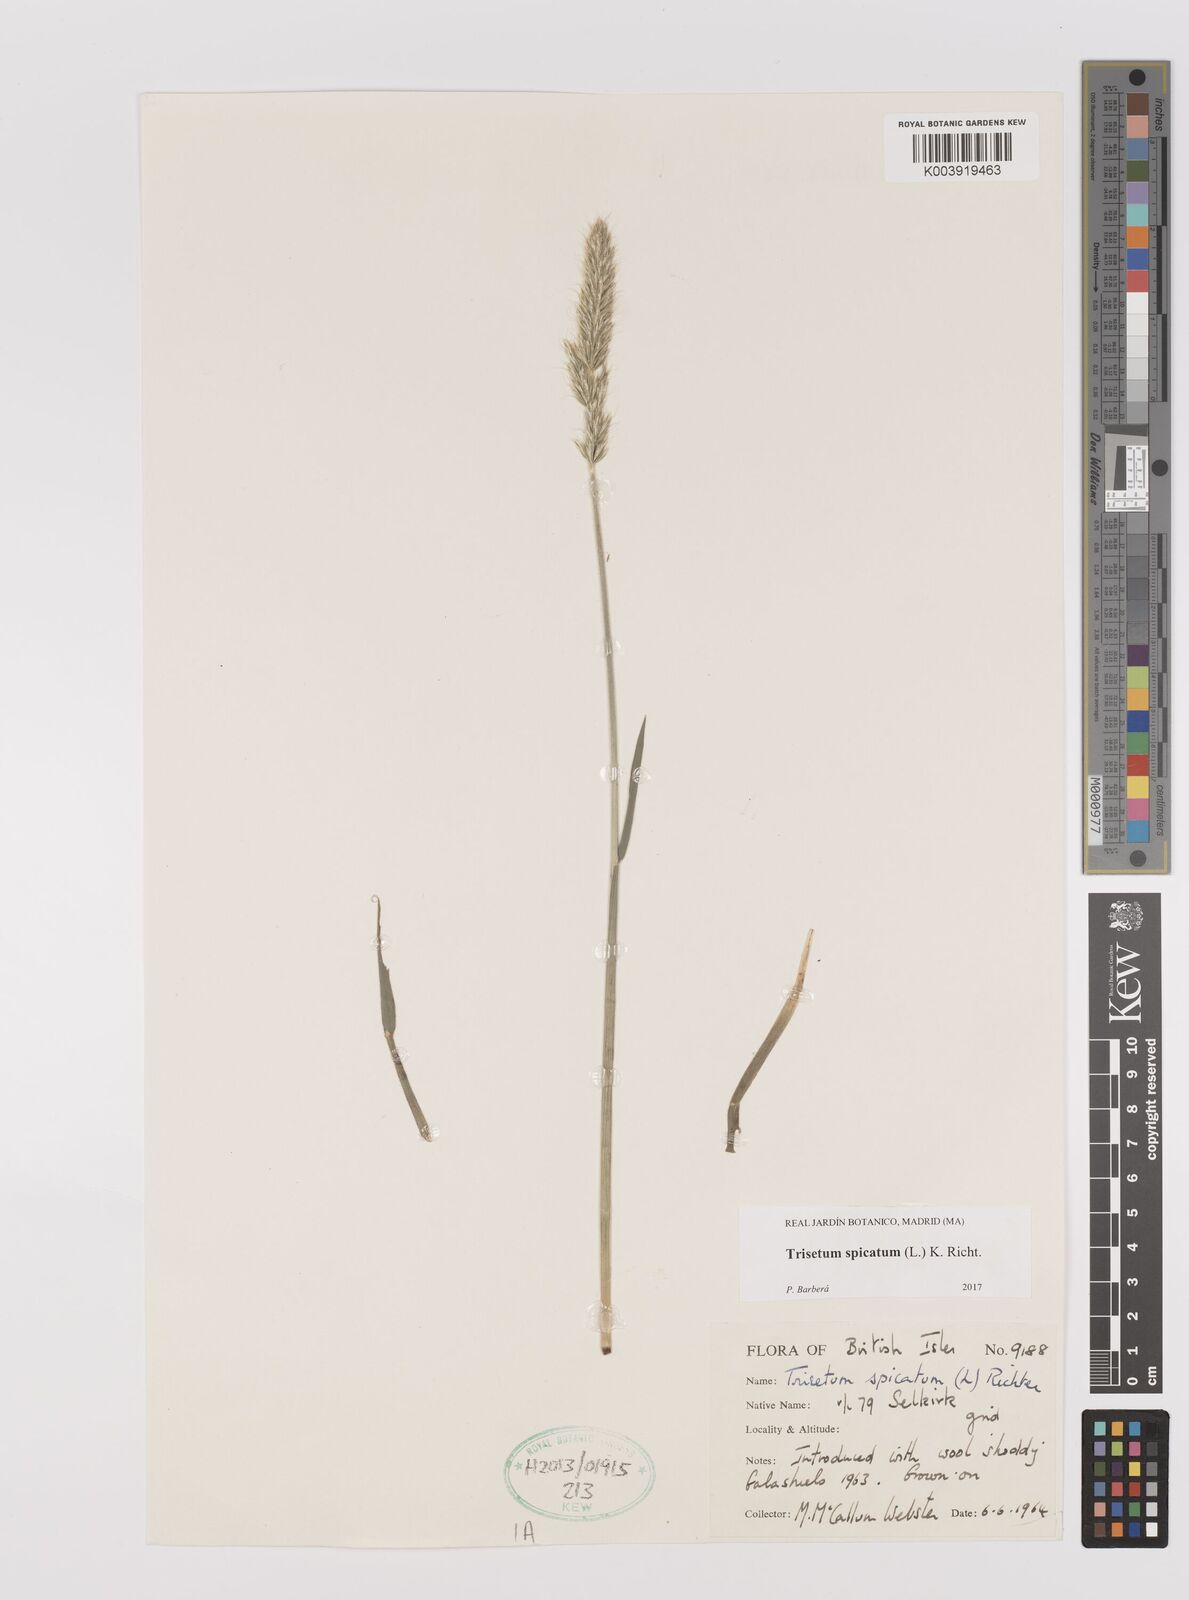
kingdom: Plantae
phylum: Tracheophyta
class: Liliopsida
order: Poales
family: Poaceae
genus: Koeleria
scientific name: Koeleria spicata
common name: Mountain trisetum
